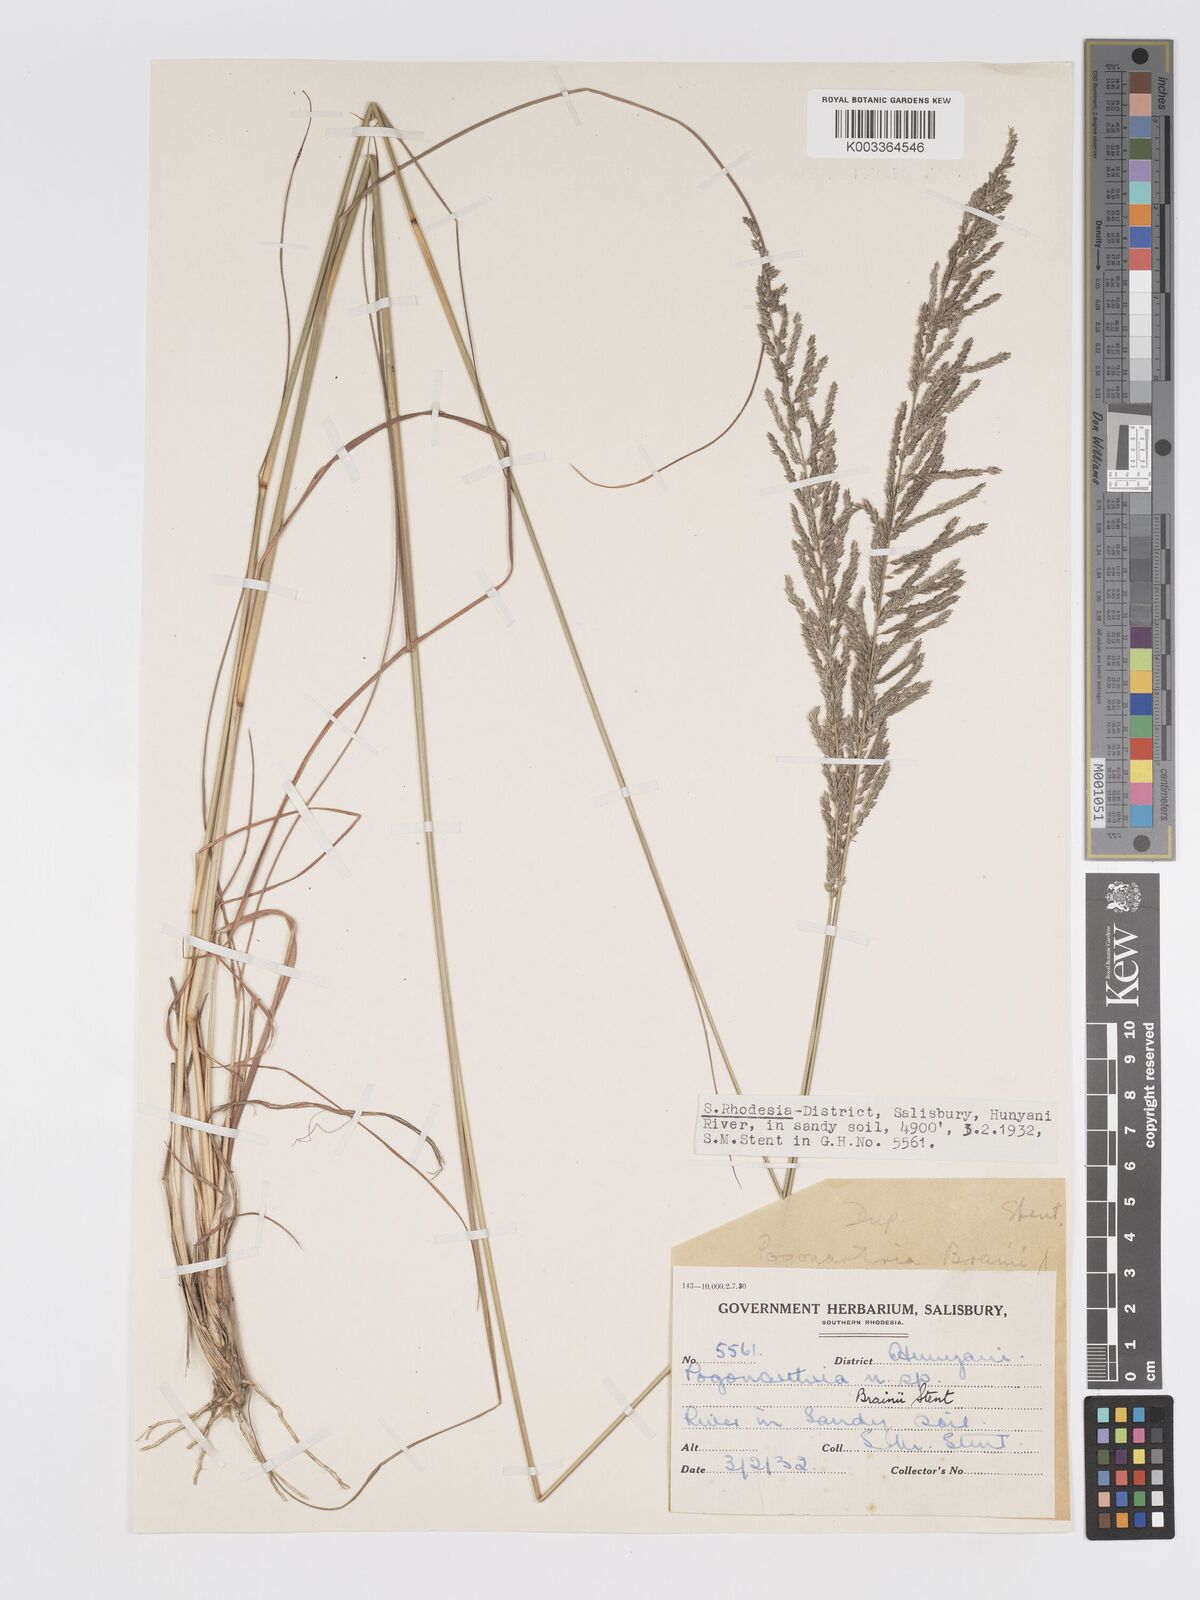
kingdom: Plantae
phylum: Tracheophyta
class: Liliopsida
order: Poales
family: Poaceae
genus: Eragrostis
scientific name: Eragrostis brainii
